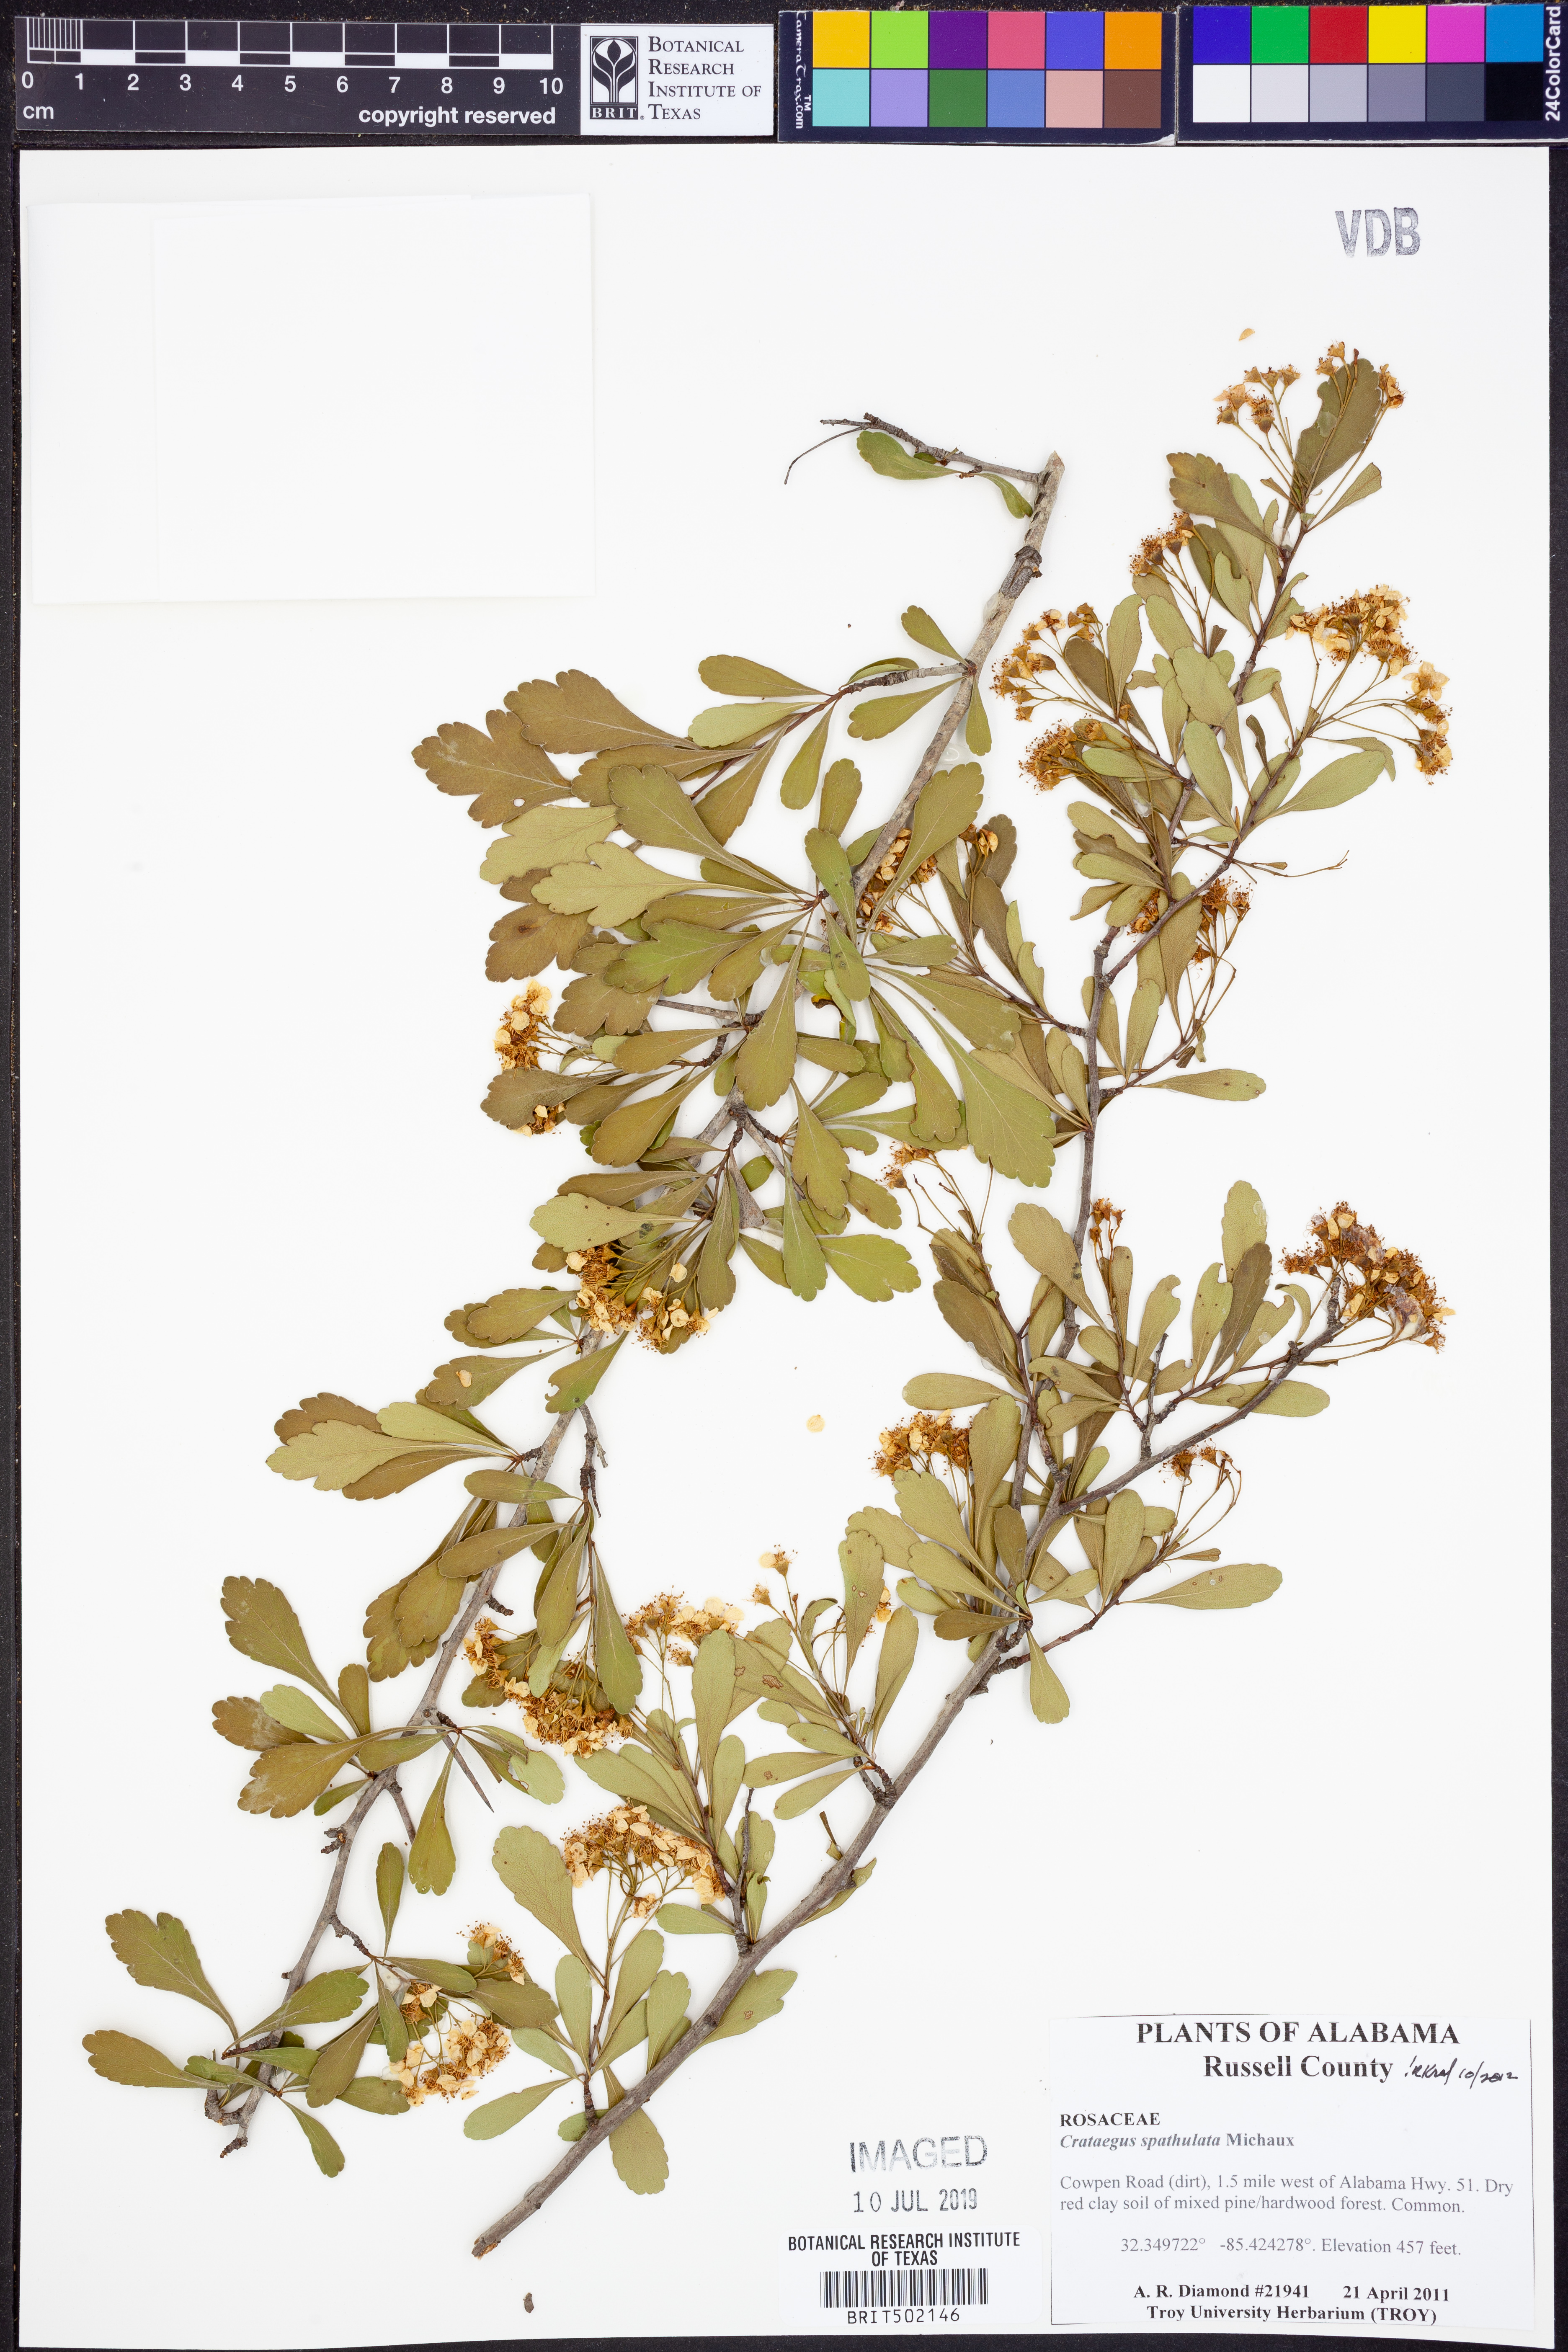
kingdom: Plantae
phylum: Tracheophyta
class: Magnoliopsida
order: Rosales
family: Rosaceae
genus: Crataegus
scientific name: Crataegus spathulata
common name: Littlehip hawthorn
